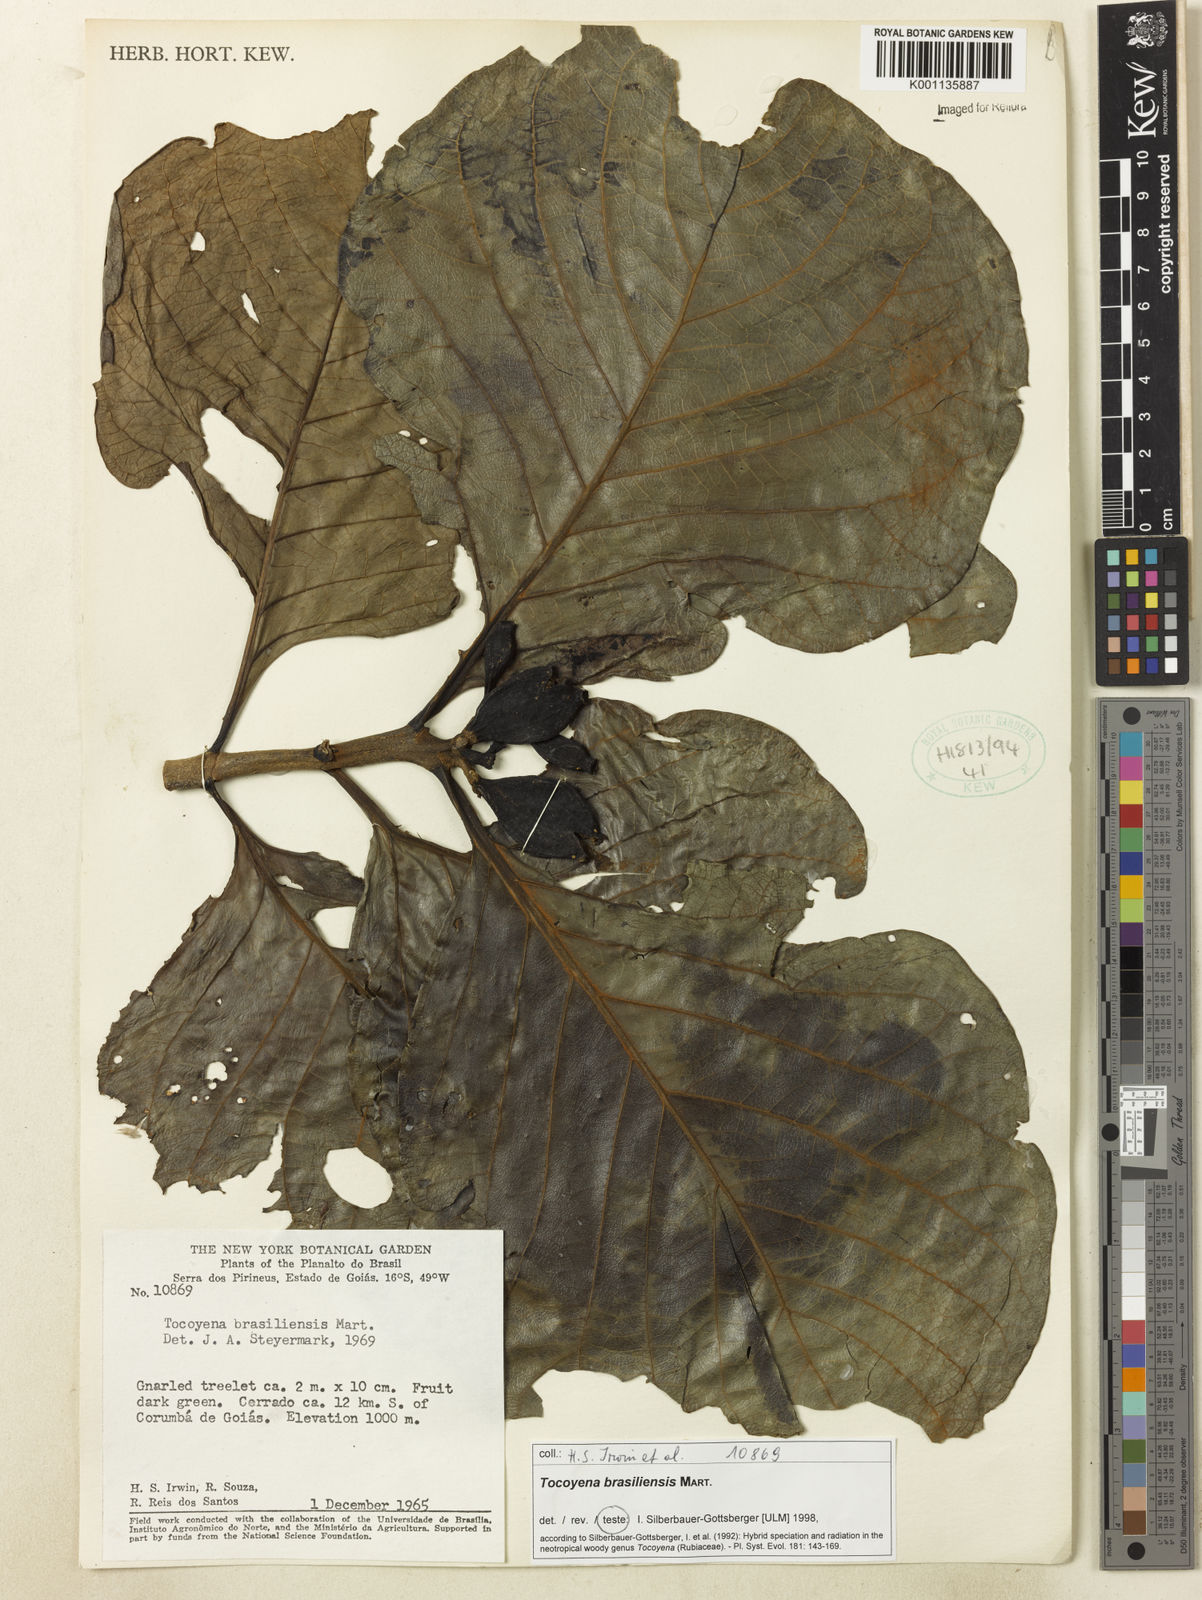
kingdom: Plantae
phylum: Tracheophyta
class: Magnoliopsida
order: Gentianales
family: Rubiaceae
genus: Tocoyena
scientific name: Tocoyena sprucei
